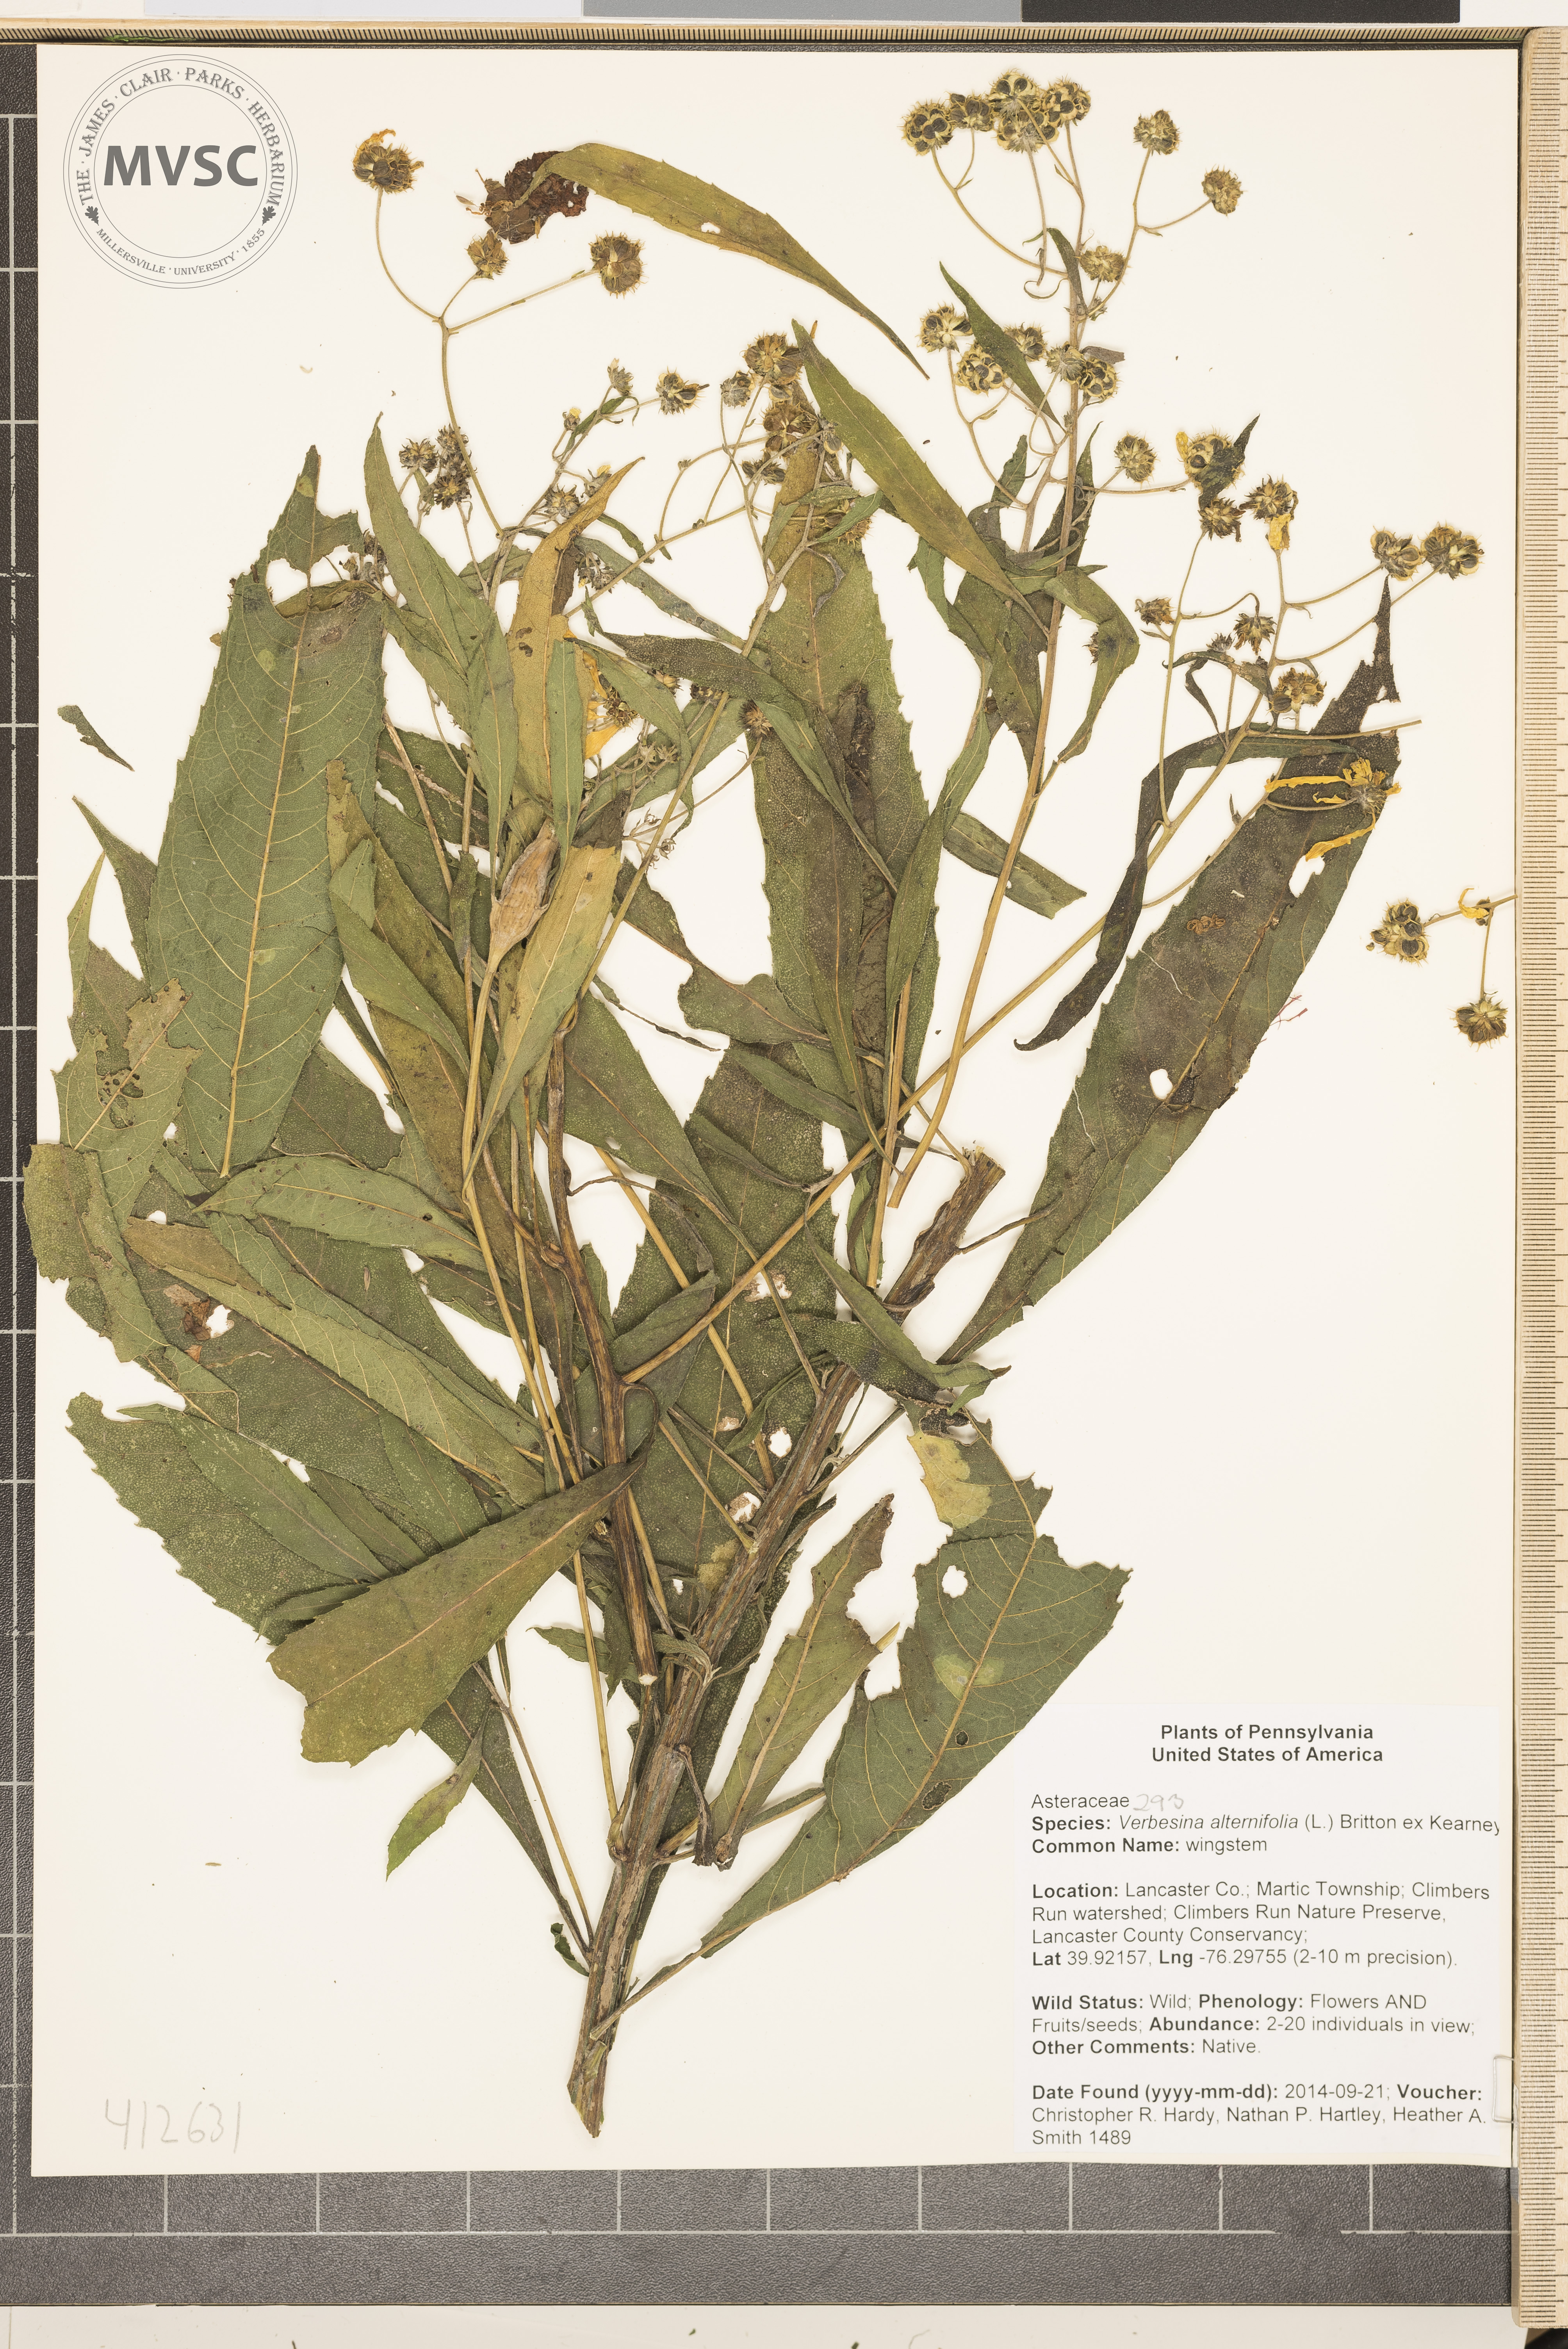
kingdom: Plantae
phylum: Tracheophyta
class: Magnoliopsida
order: Asterales
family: Asteraceae
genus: Verbesina
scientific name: Verbesina alternifolia
